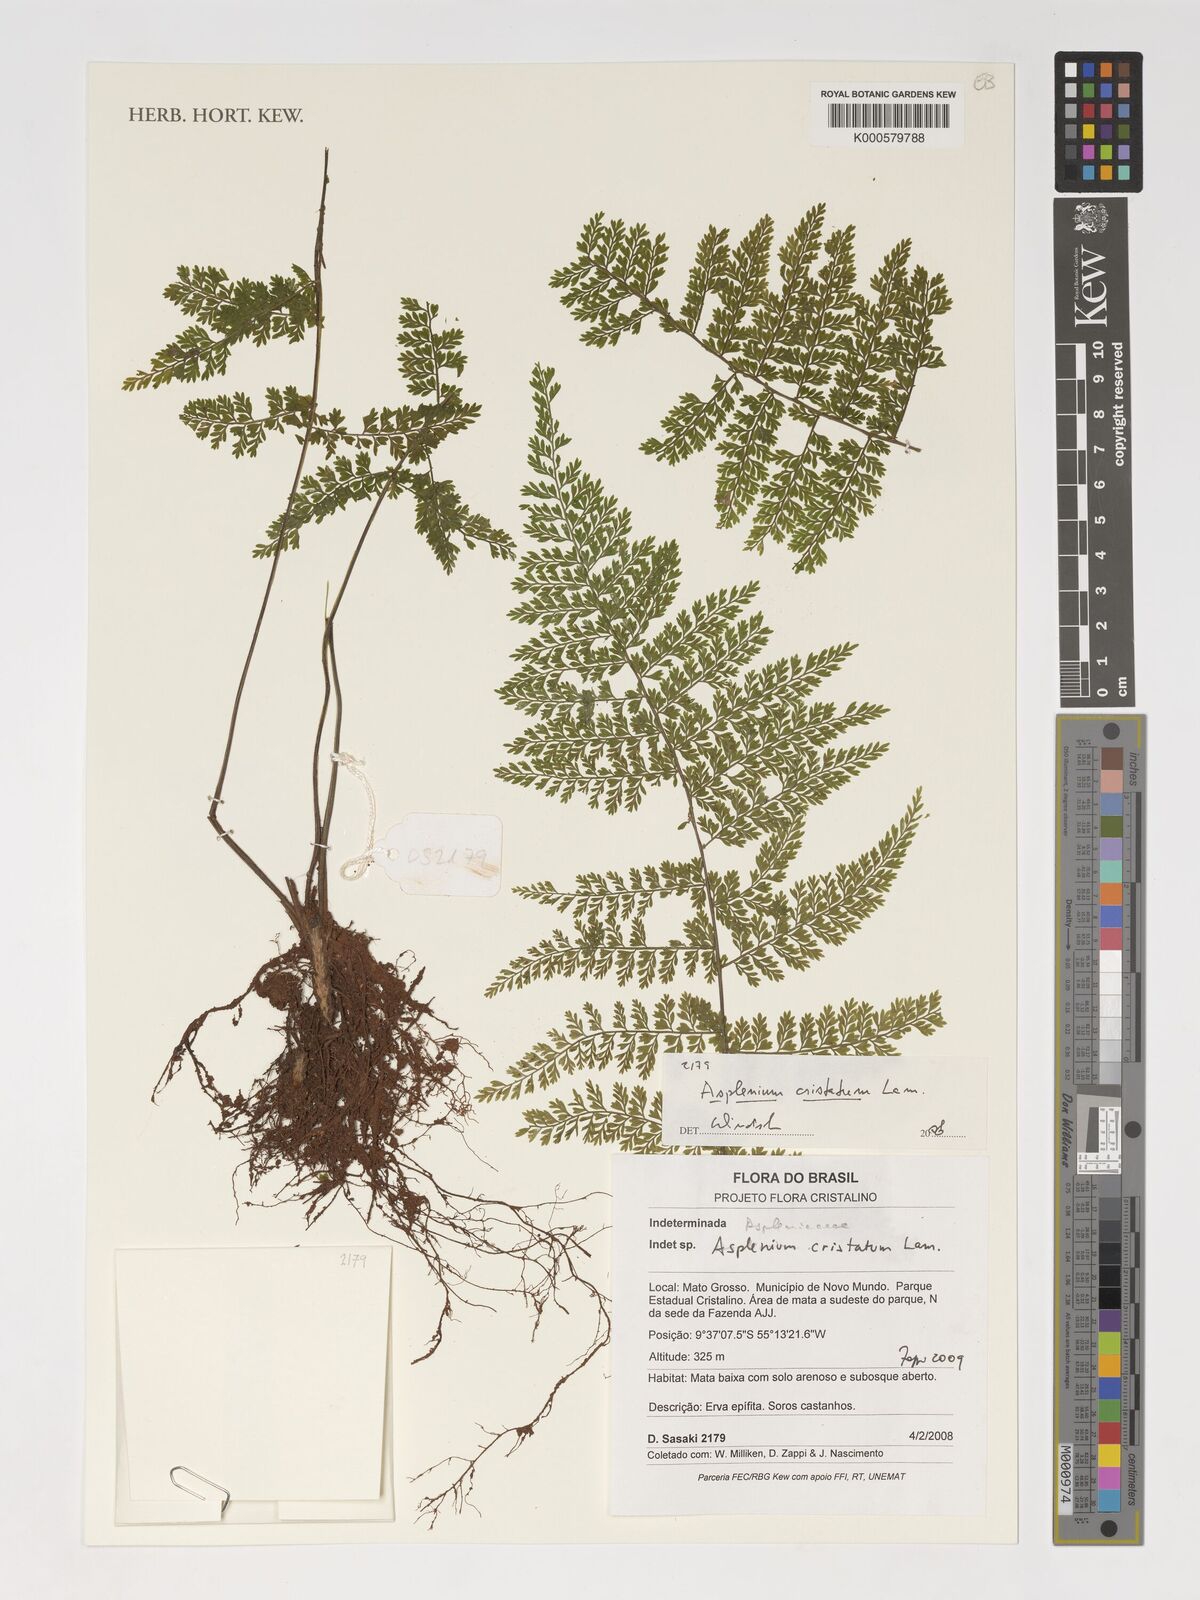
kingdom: Plantae
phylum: Tracheophyta
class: Polypodiopsida
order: Polypodiales
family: Aspleniaceae
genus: Asplenium
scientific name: Asplenium cristatum
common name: Parsley spleenwort
